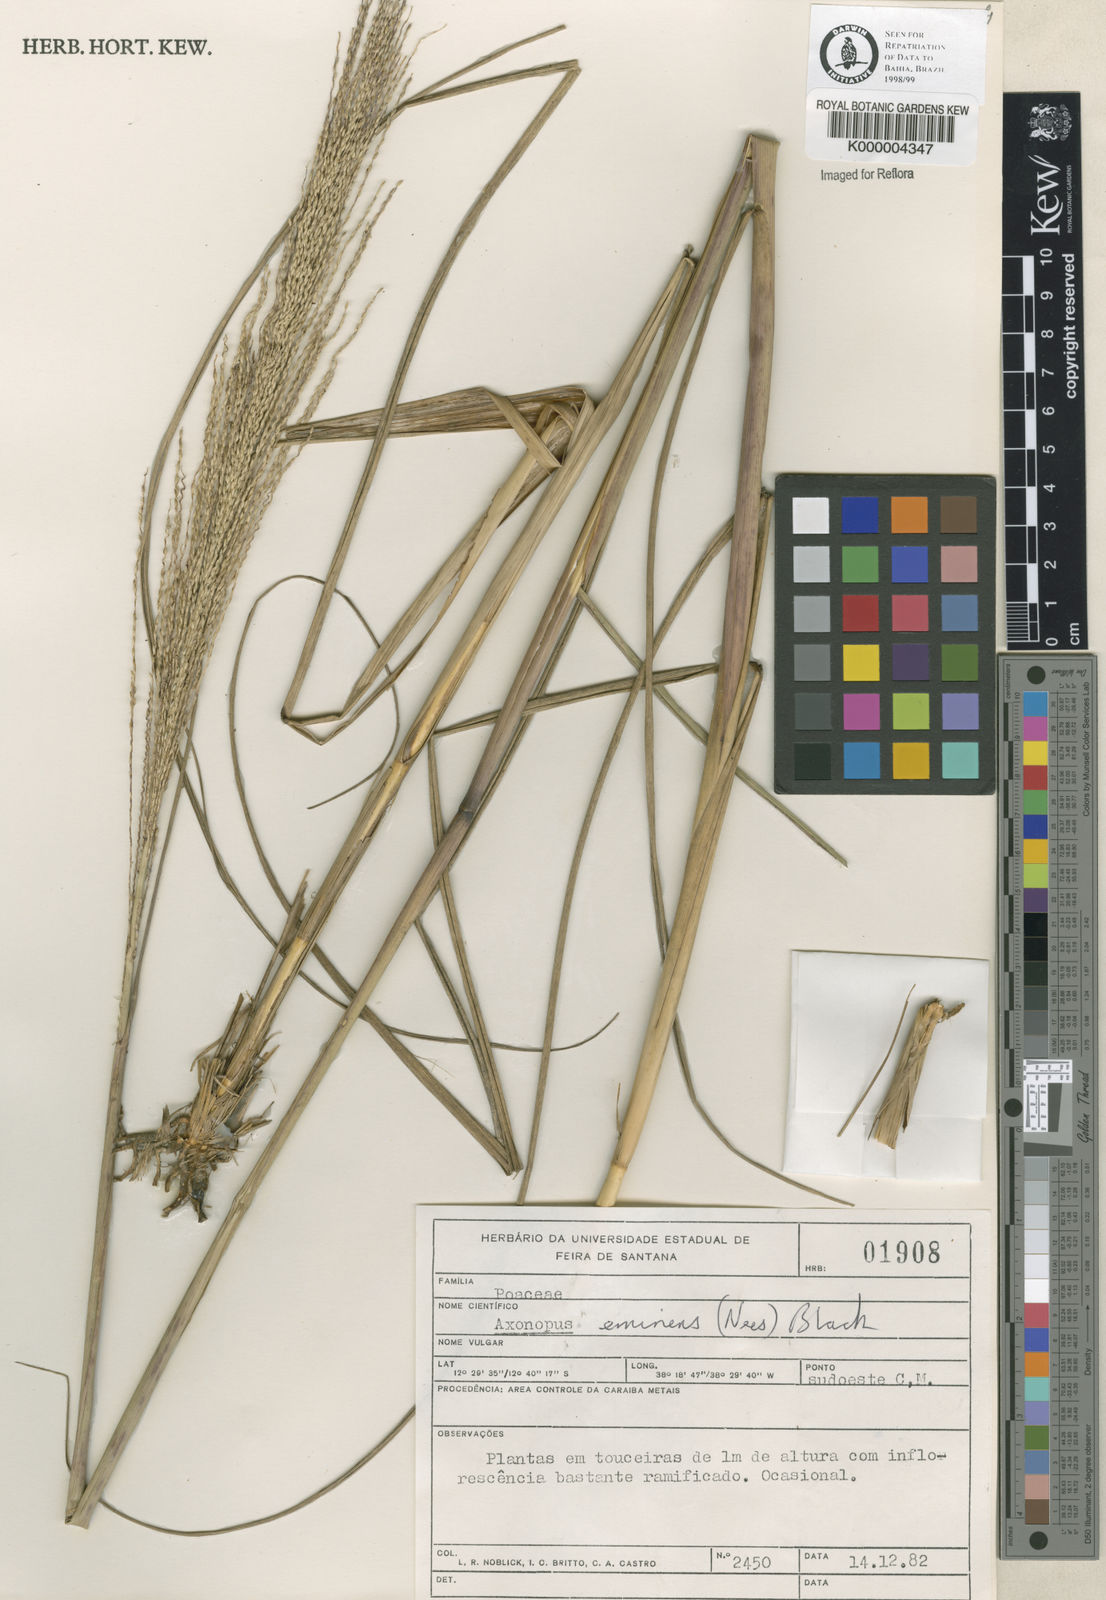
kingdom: Plantae
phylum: Tracheophyta
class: Liliopsida
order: Poales
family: Poaceae
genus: Axonopus
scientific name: Axonopus eminens
